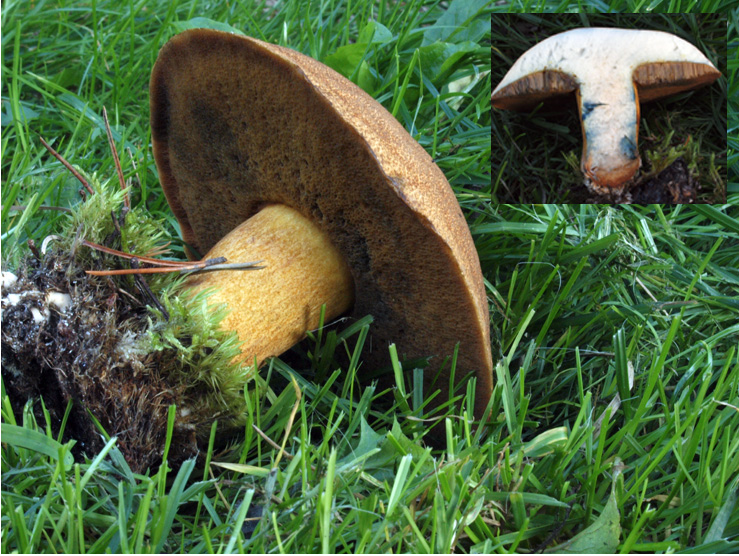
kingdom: Fungi
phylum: Basidiomycota
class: Agaricomycetes
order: Boletales
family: Suillaceae
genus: Suillus
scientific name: Suillus variegatus
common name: broget slimrørhat
